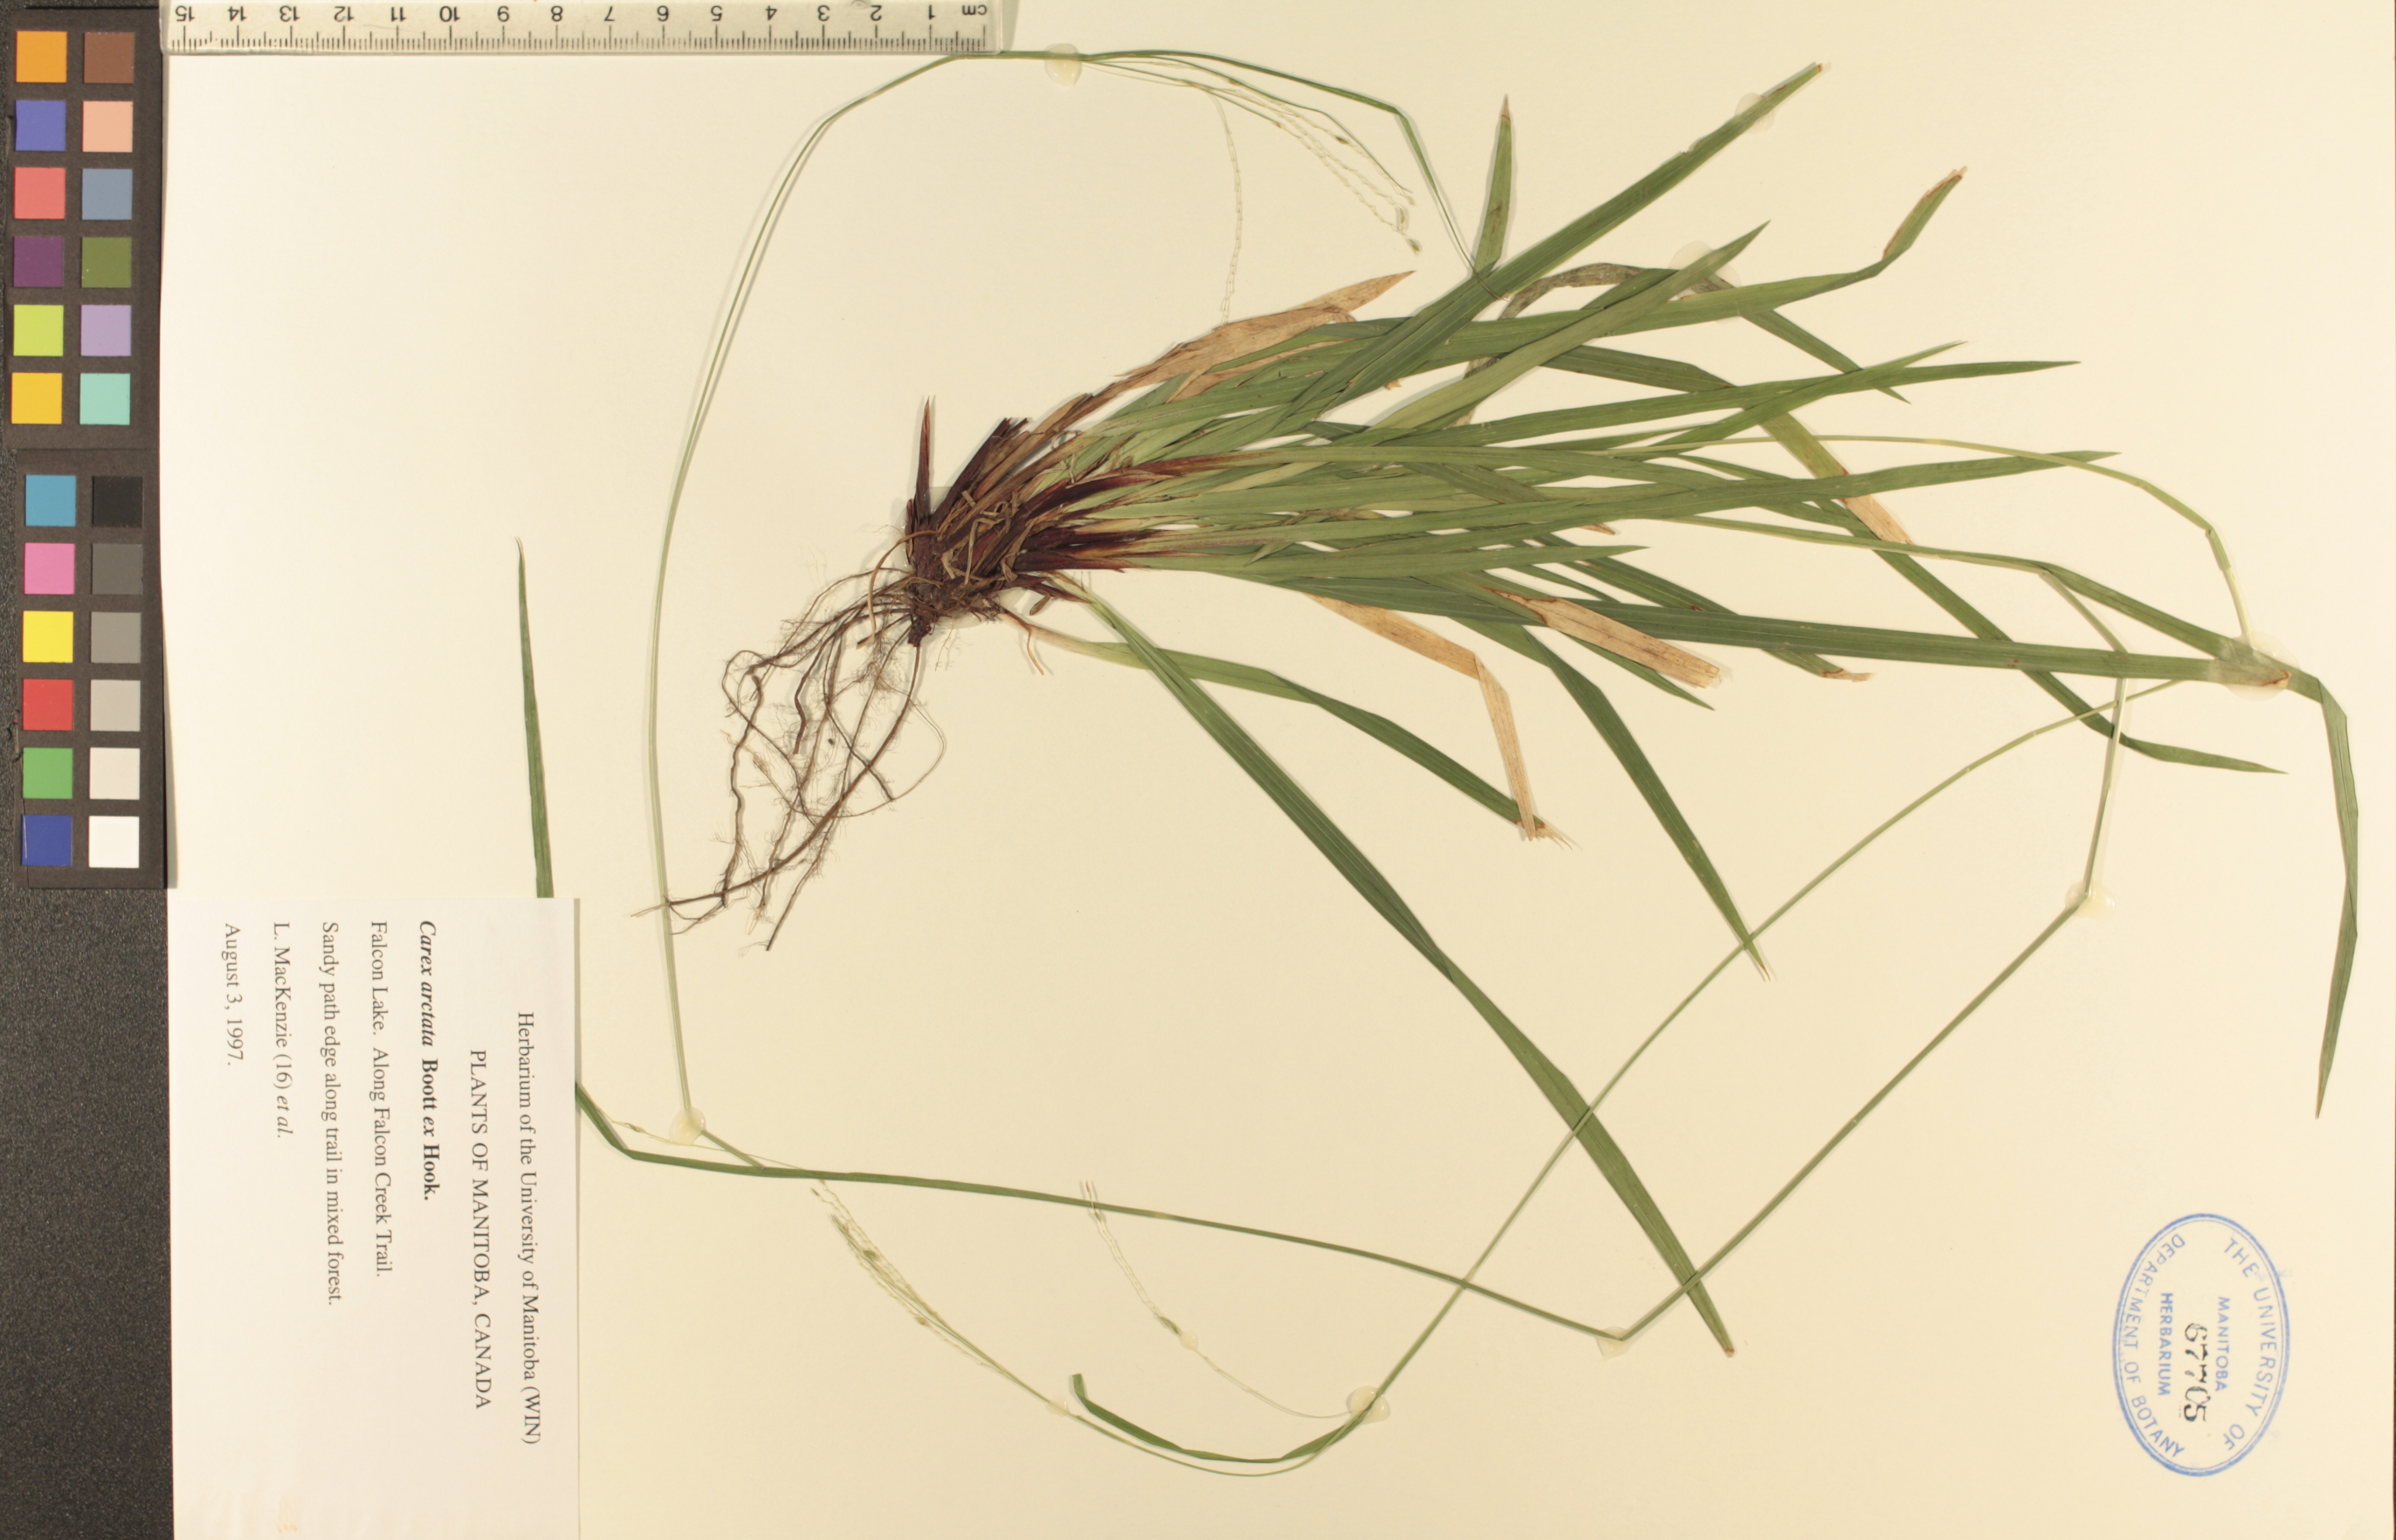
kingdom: Plantae
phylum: Tracheophyta
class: Liliopsida
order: Poales
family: Cyperaceae
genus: Carex
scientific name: Carex arctata
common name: Black sedge
